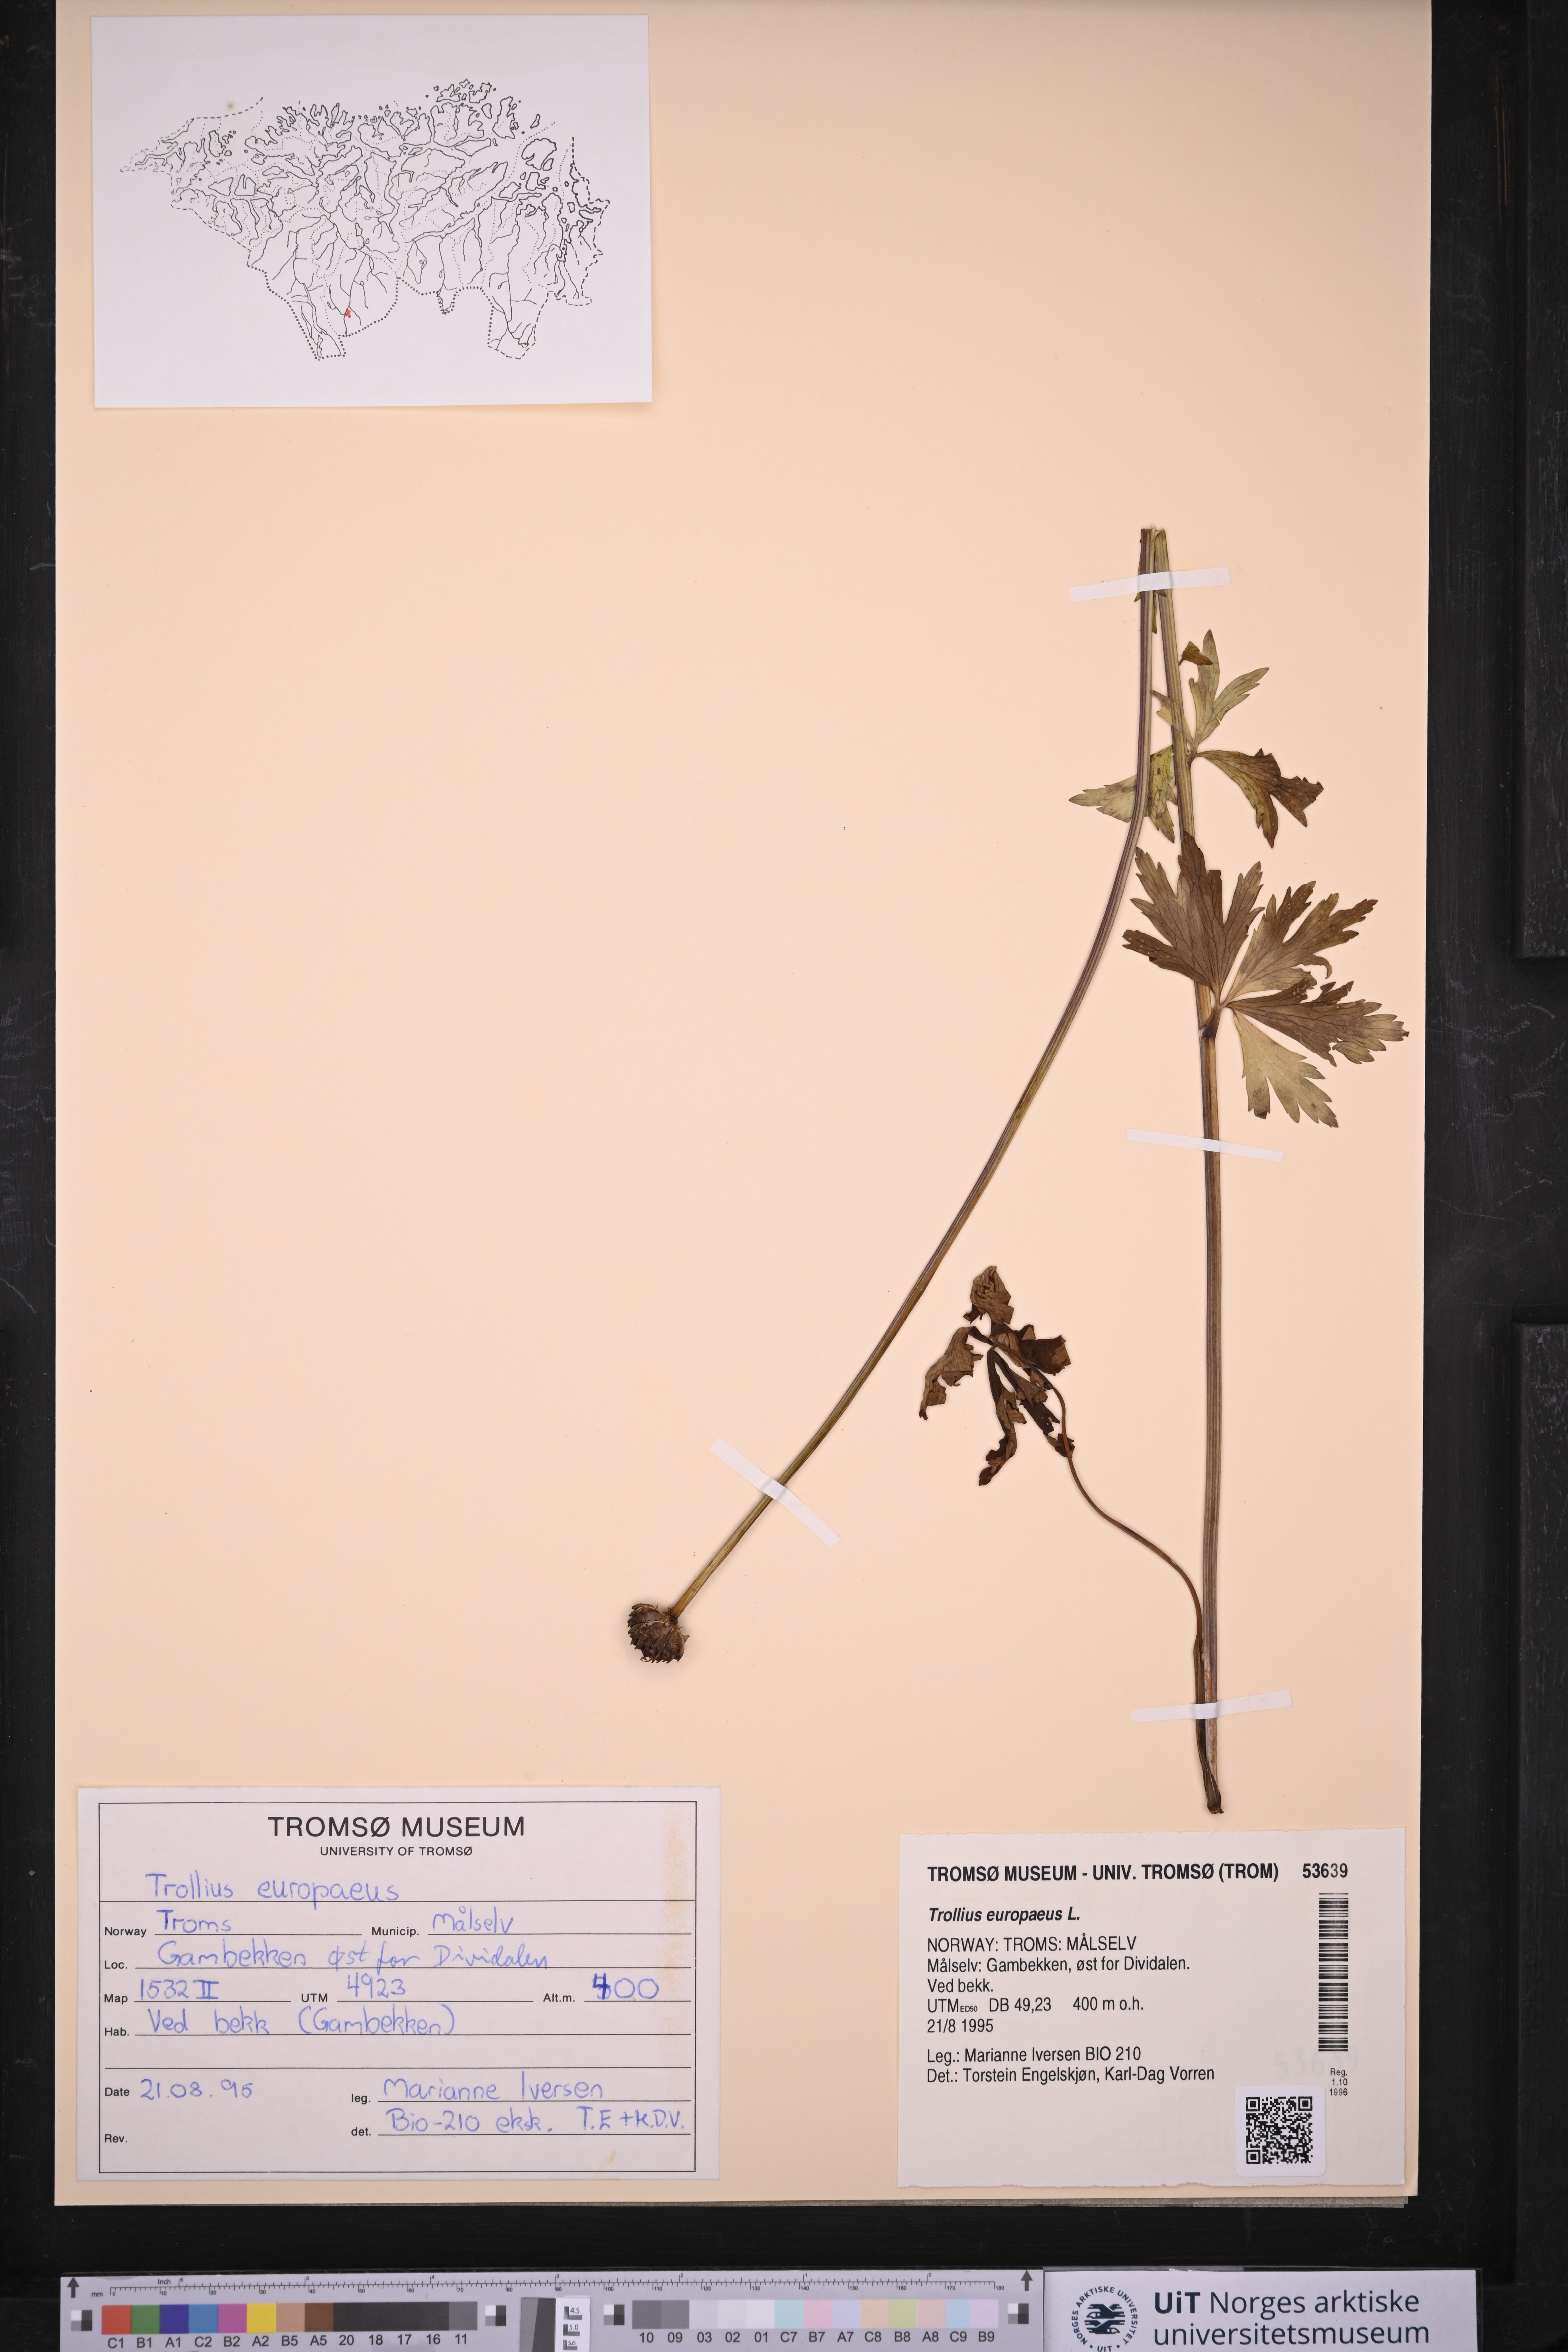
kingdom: Plantae
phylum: Tracheophyta
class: Magnoliopsida
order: Ranunculales
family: Ranunculaceae
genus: Trollius
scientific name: Trollius europaeus
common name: European globeflower
